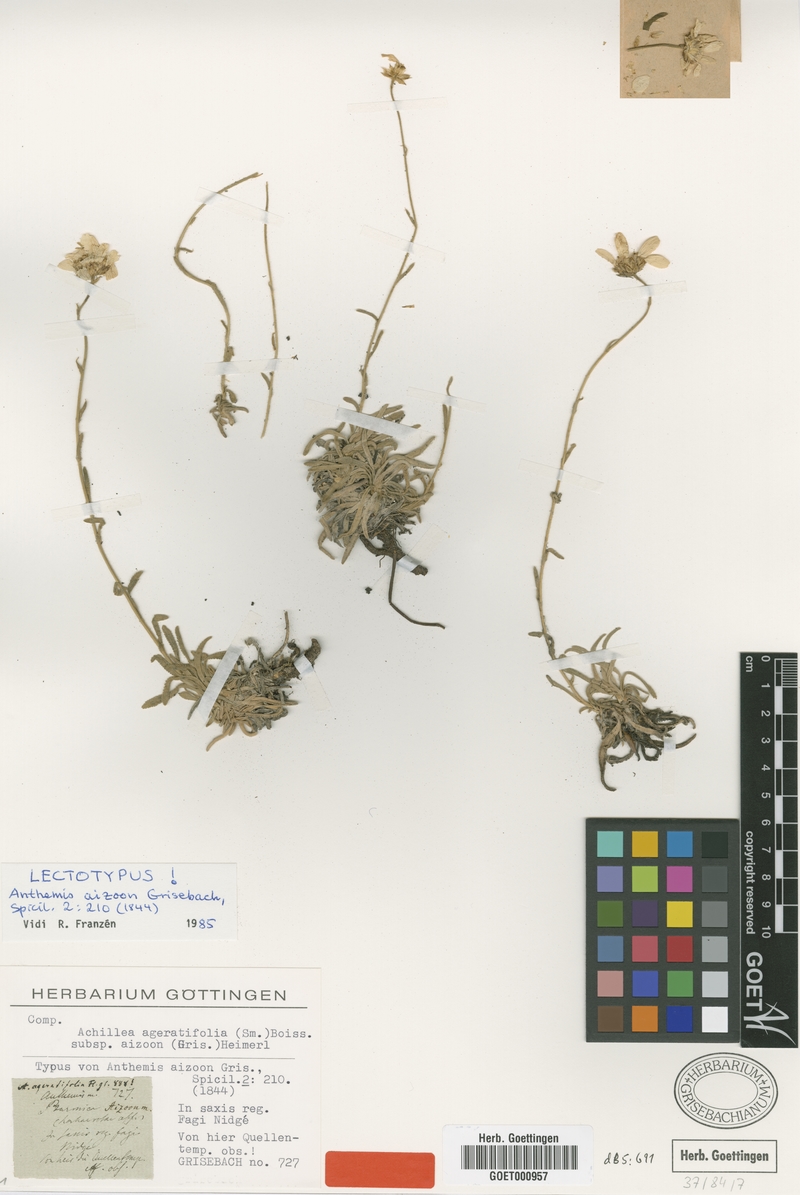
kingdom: Plantae
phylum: Tracheophyta
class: Magnoliopsida
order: Asterales
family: Asteraceae
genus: Achillea
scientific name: Achillea ageratifolia
